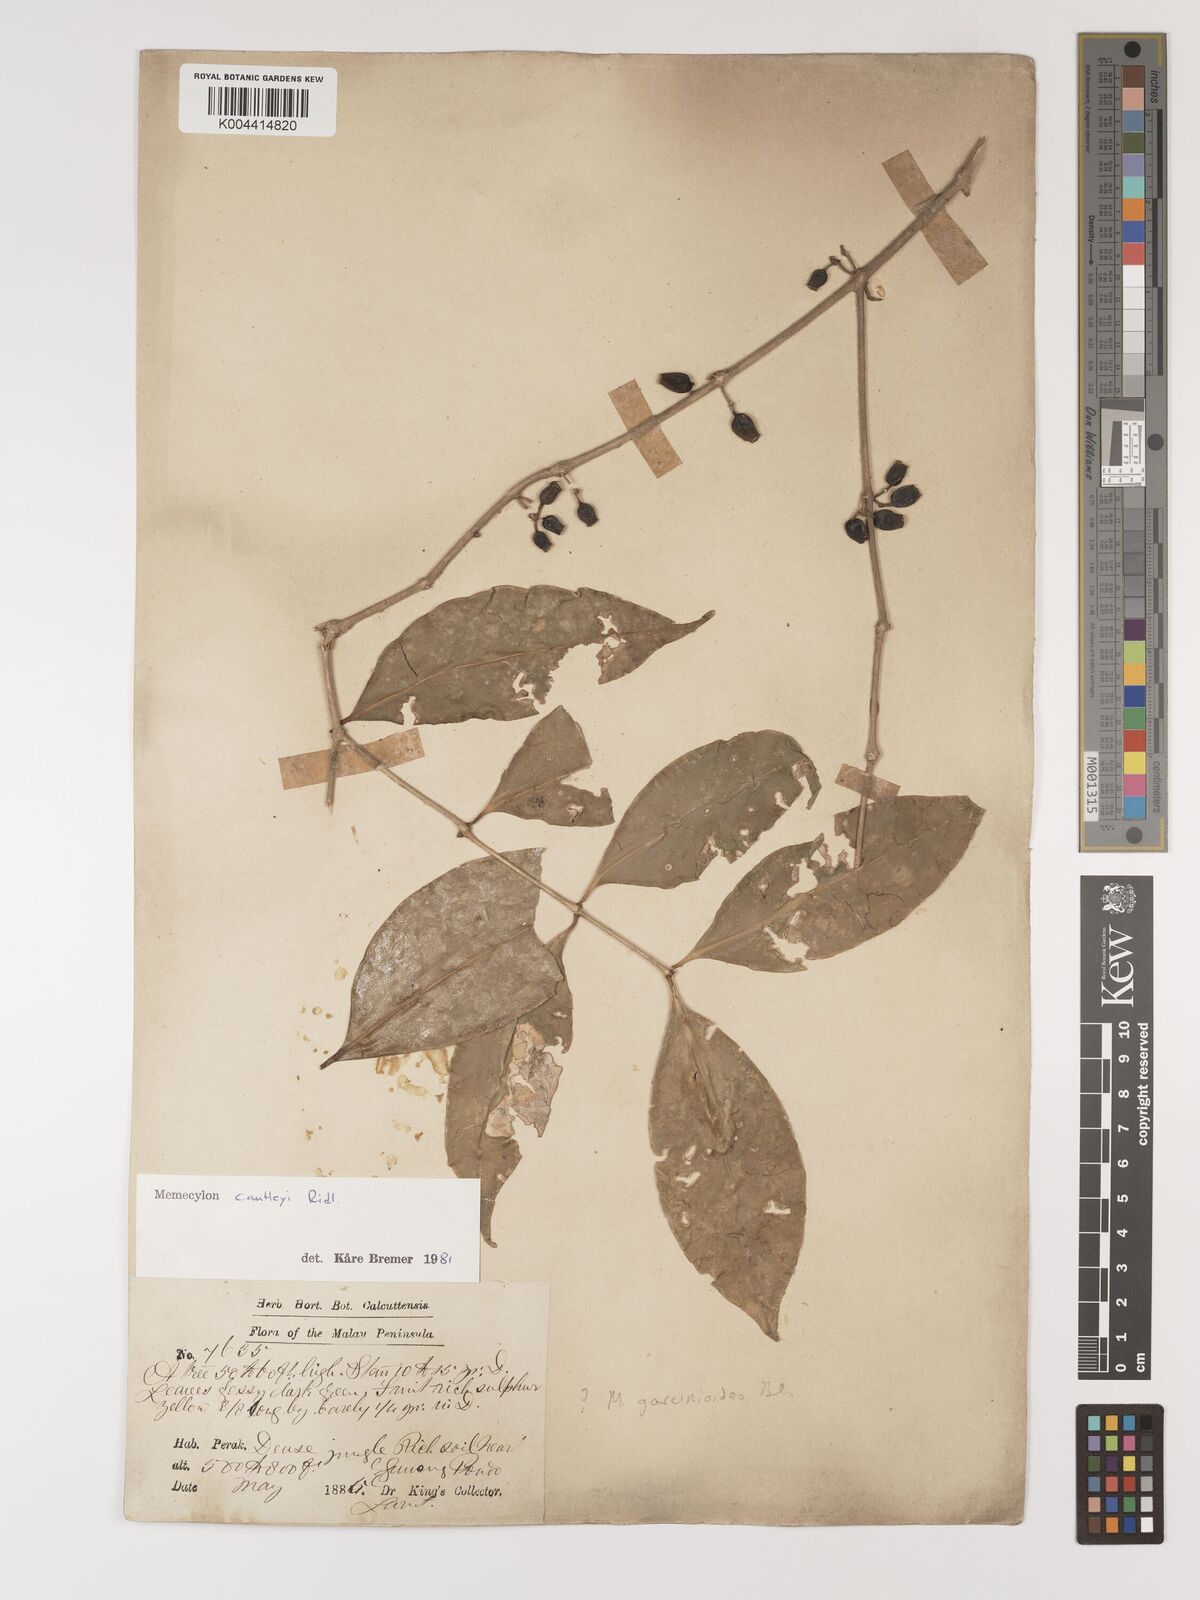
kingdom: Plantae
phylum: Tracheophyta
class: Magnoliopsida
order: Myrtales
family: Melastomataceae
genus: Memecylon
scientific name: Memecylon cantleyi
